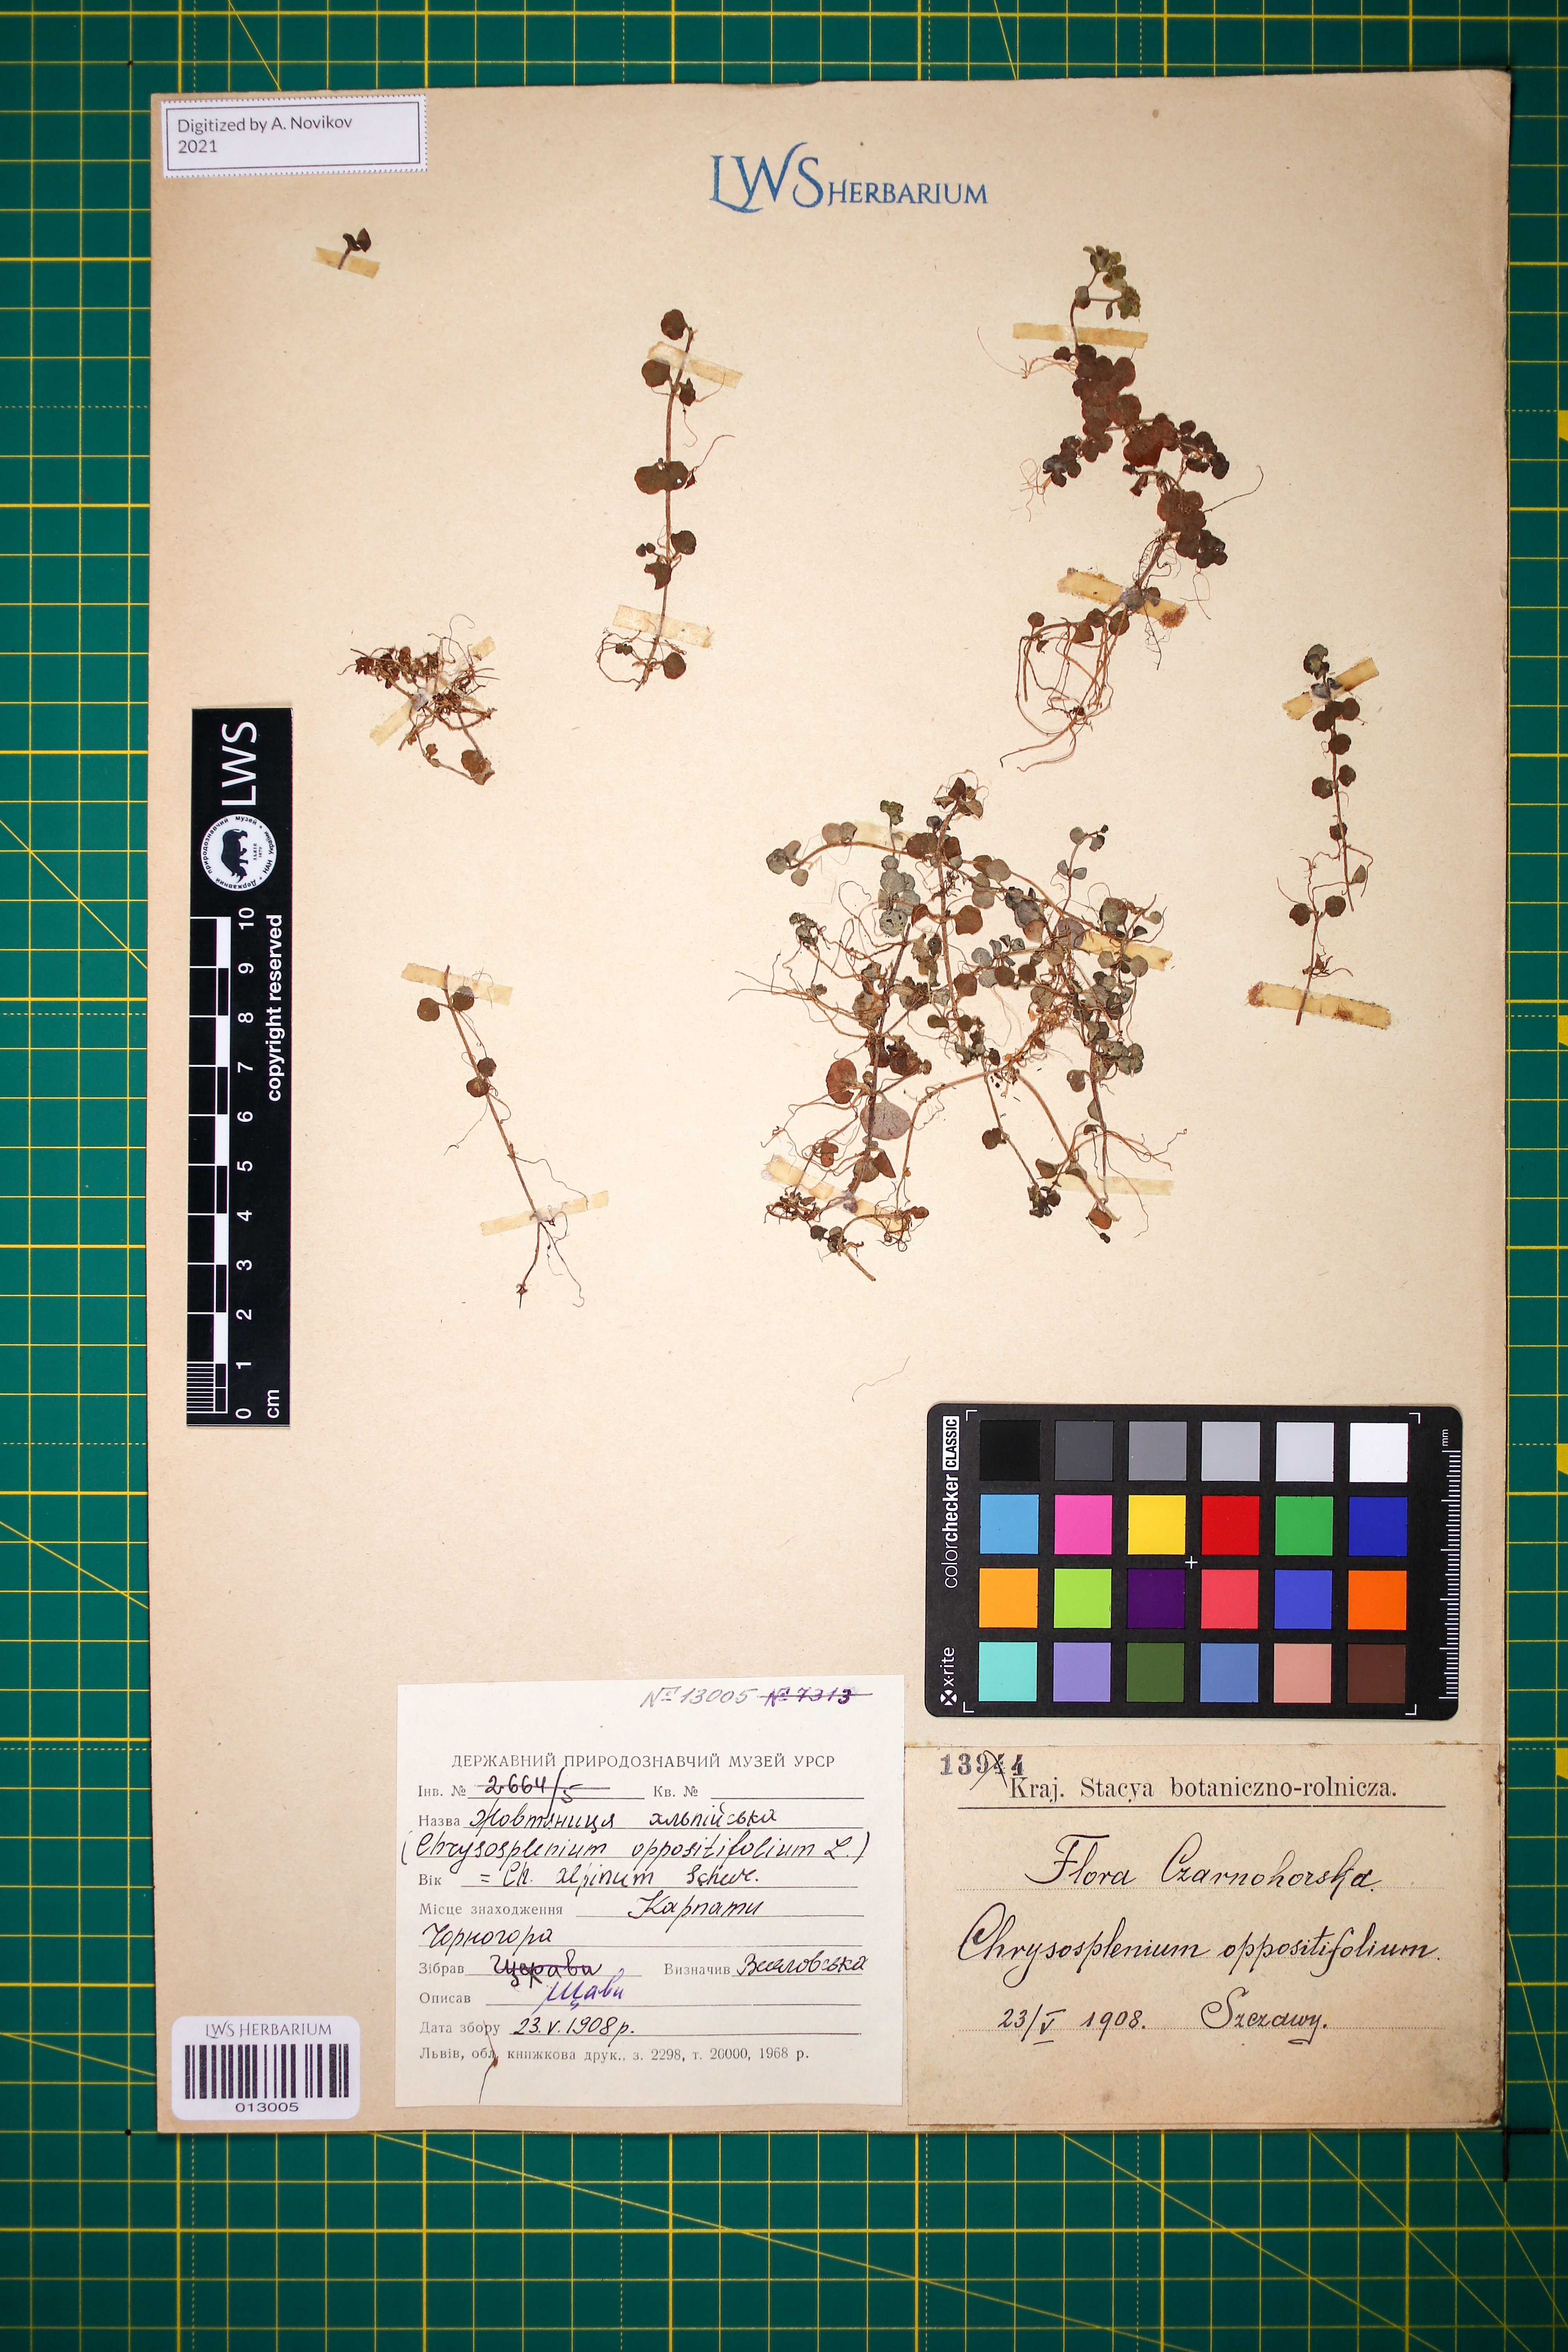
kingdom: Plantae
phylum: Tracheophyta
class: Magnoliopsida
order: Saxifragales
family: Saxifragaceae
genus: Chrysosplenium
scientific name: Chrysosplenium alpinum
